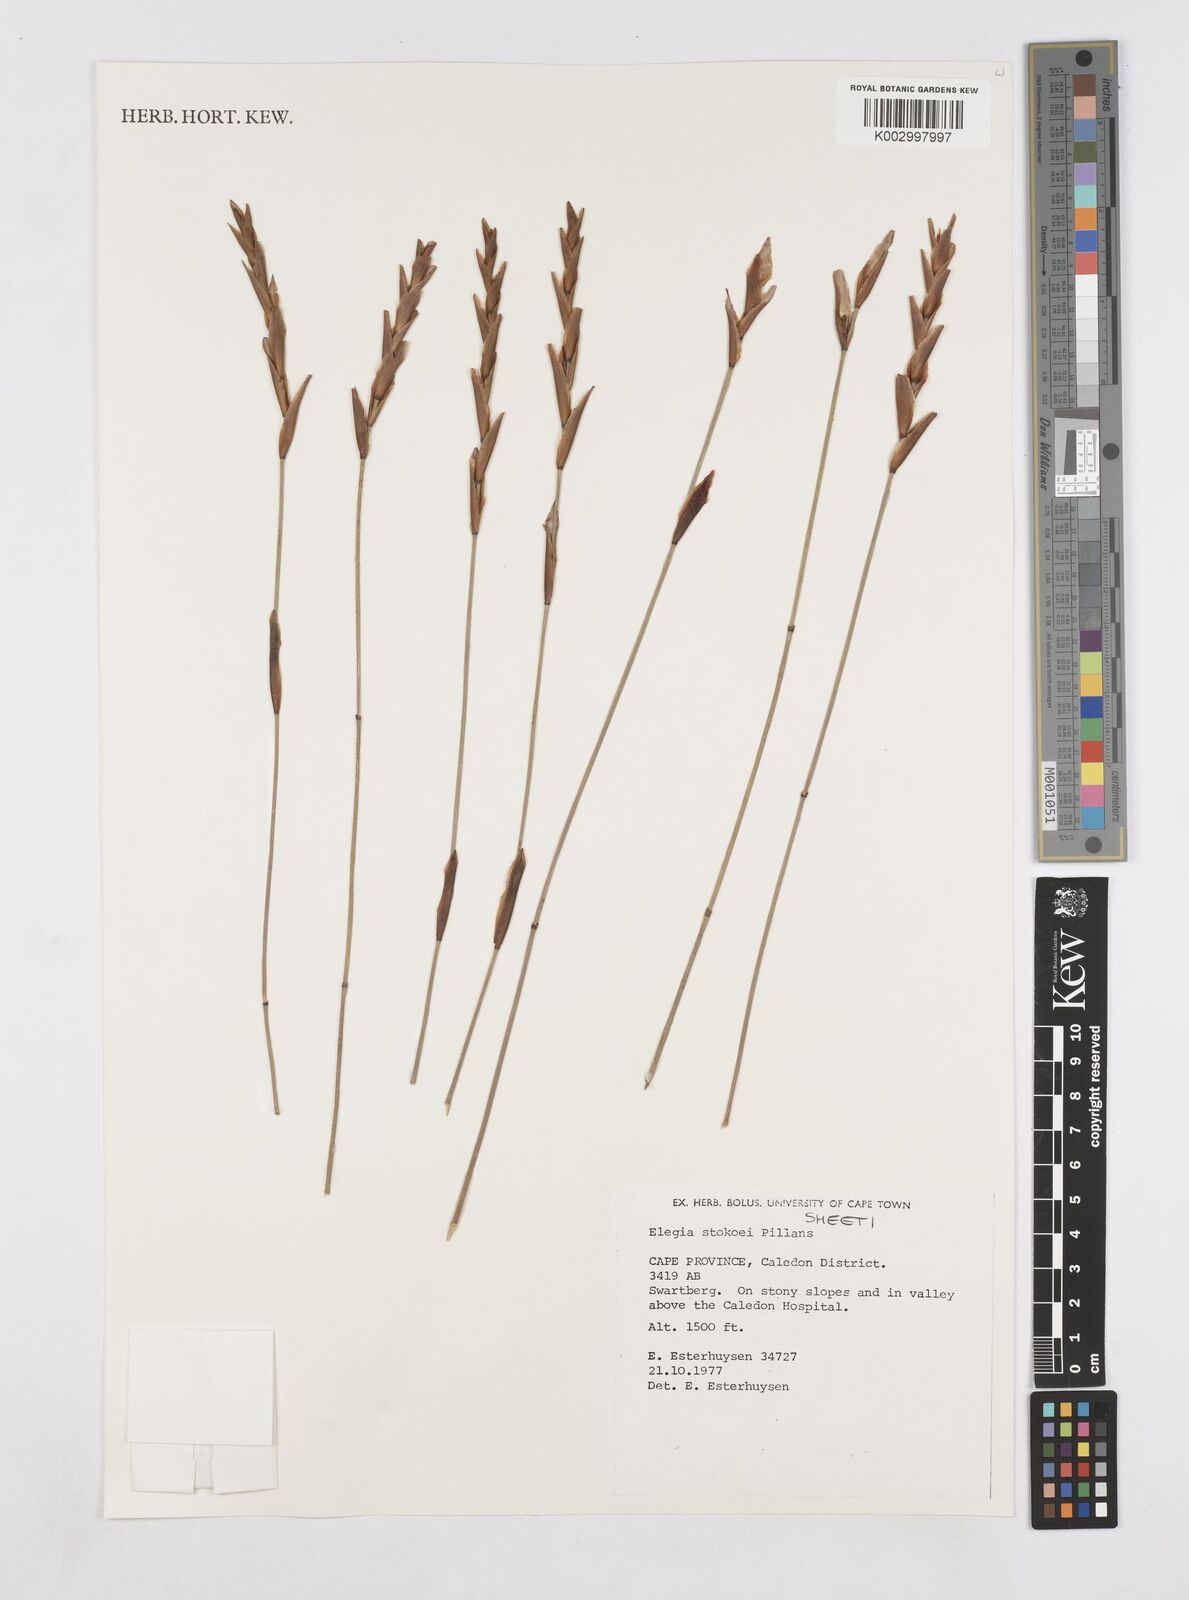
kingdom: Plantae
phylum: Tracheophyta
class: Liliopsida
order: Poales
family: Restionaceae
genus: Elegia
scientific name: Elegia stokoei
